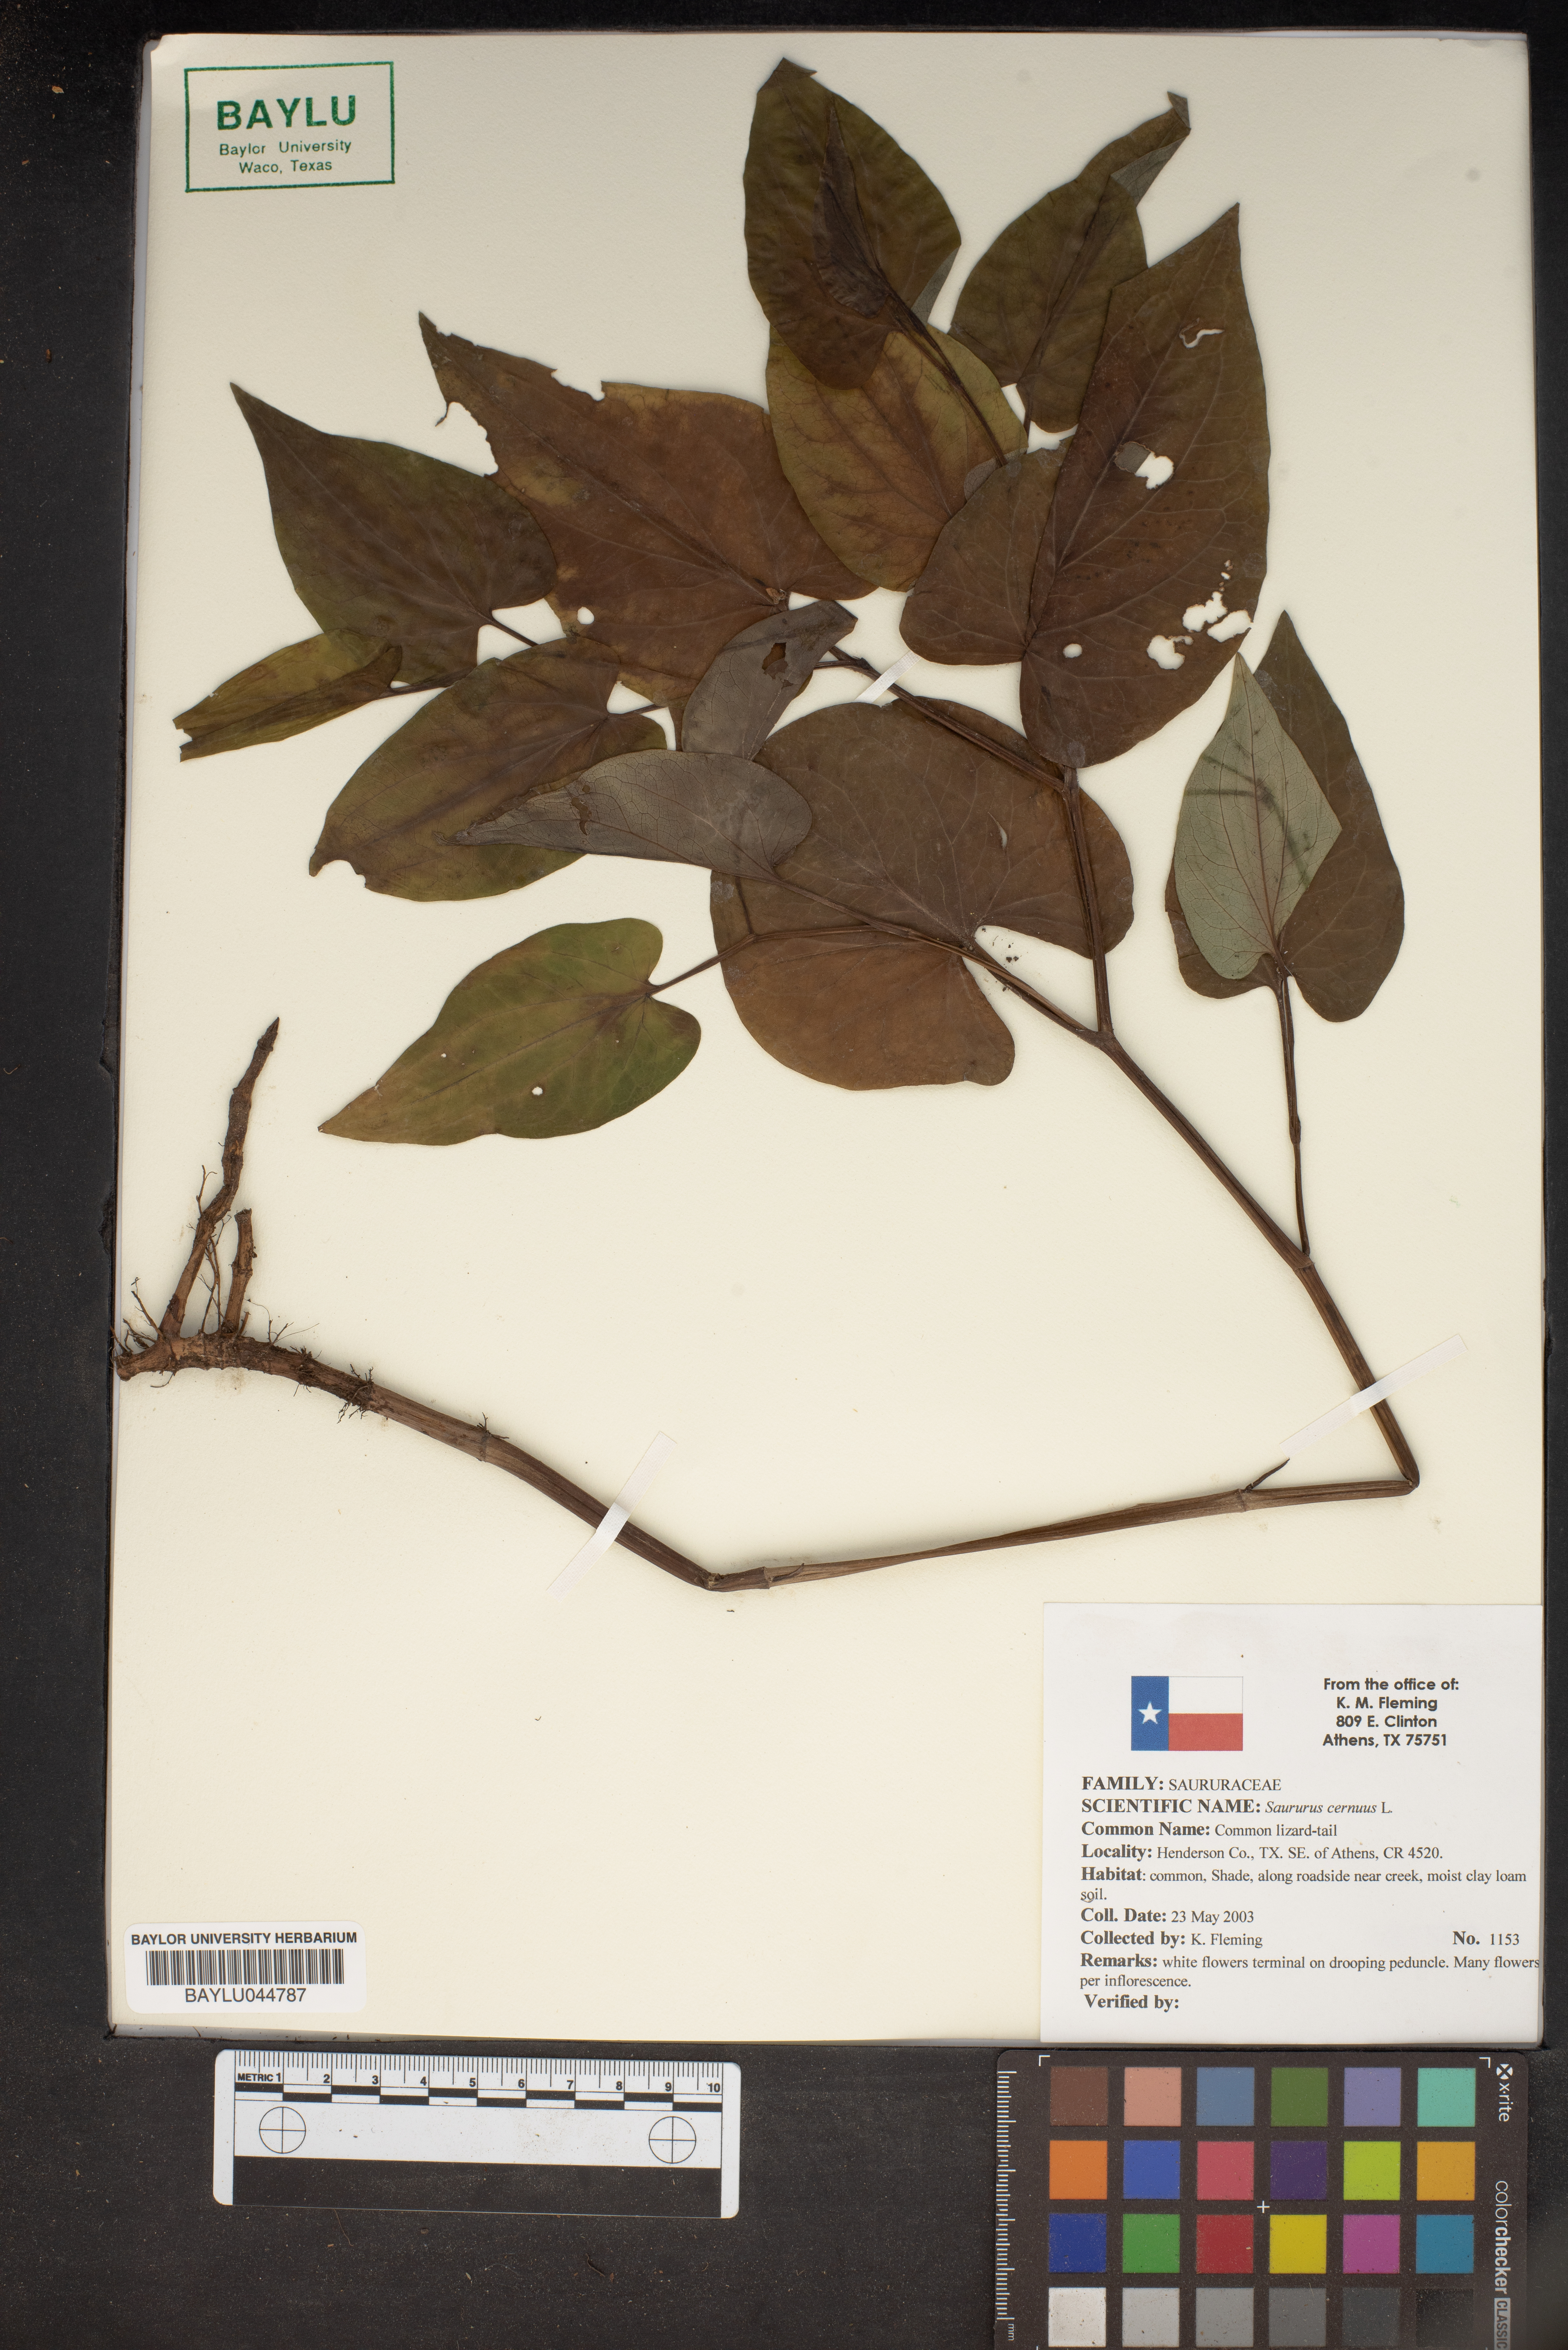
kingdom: Plantae
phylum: Tracheophyta
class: Magnoliopsida
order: Piperales
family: Saururaceae
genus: Saururus
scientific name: Saururus cernuus
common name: Lizard's-tail
